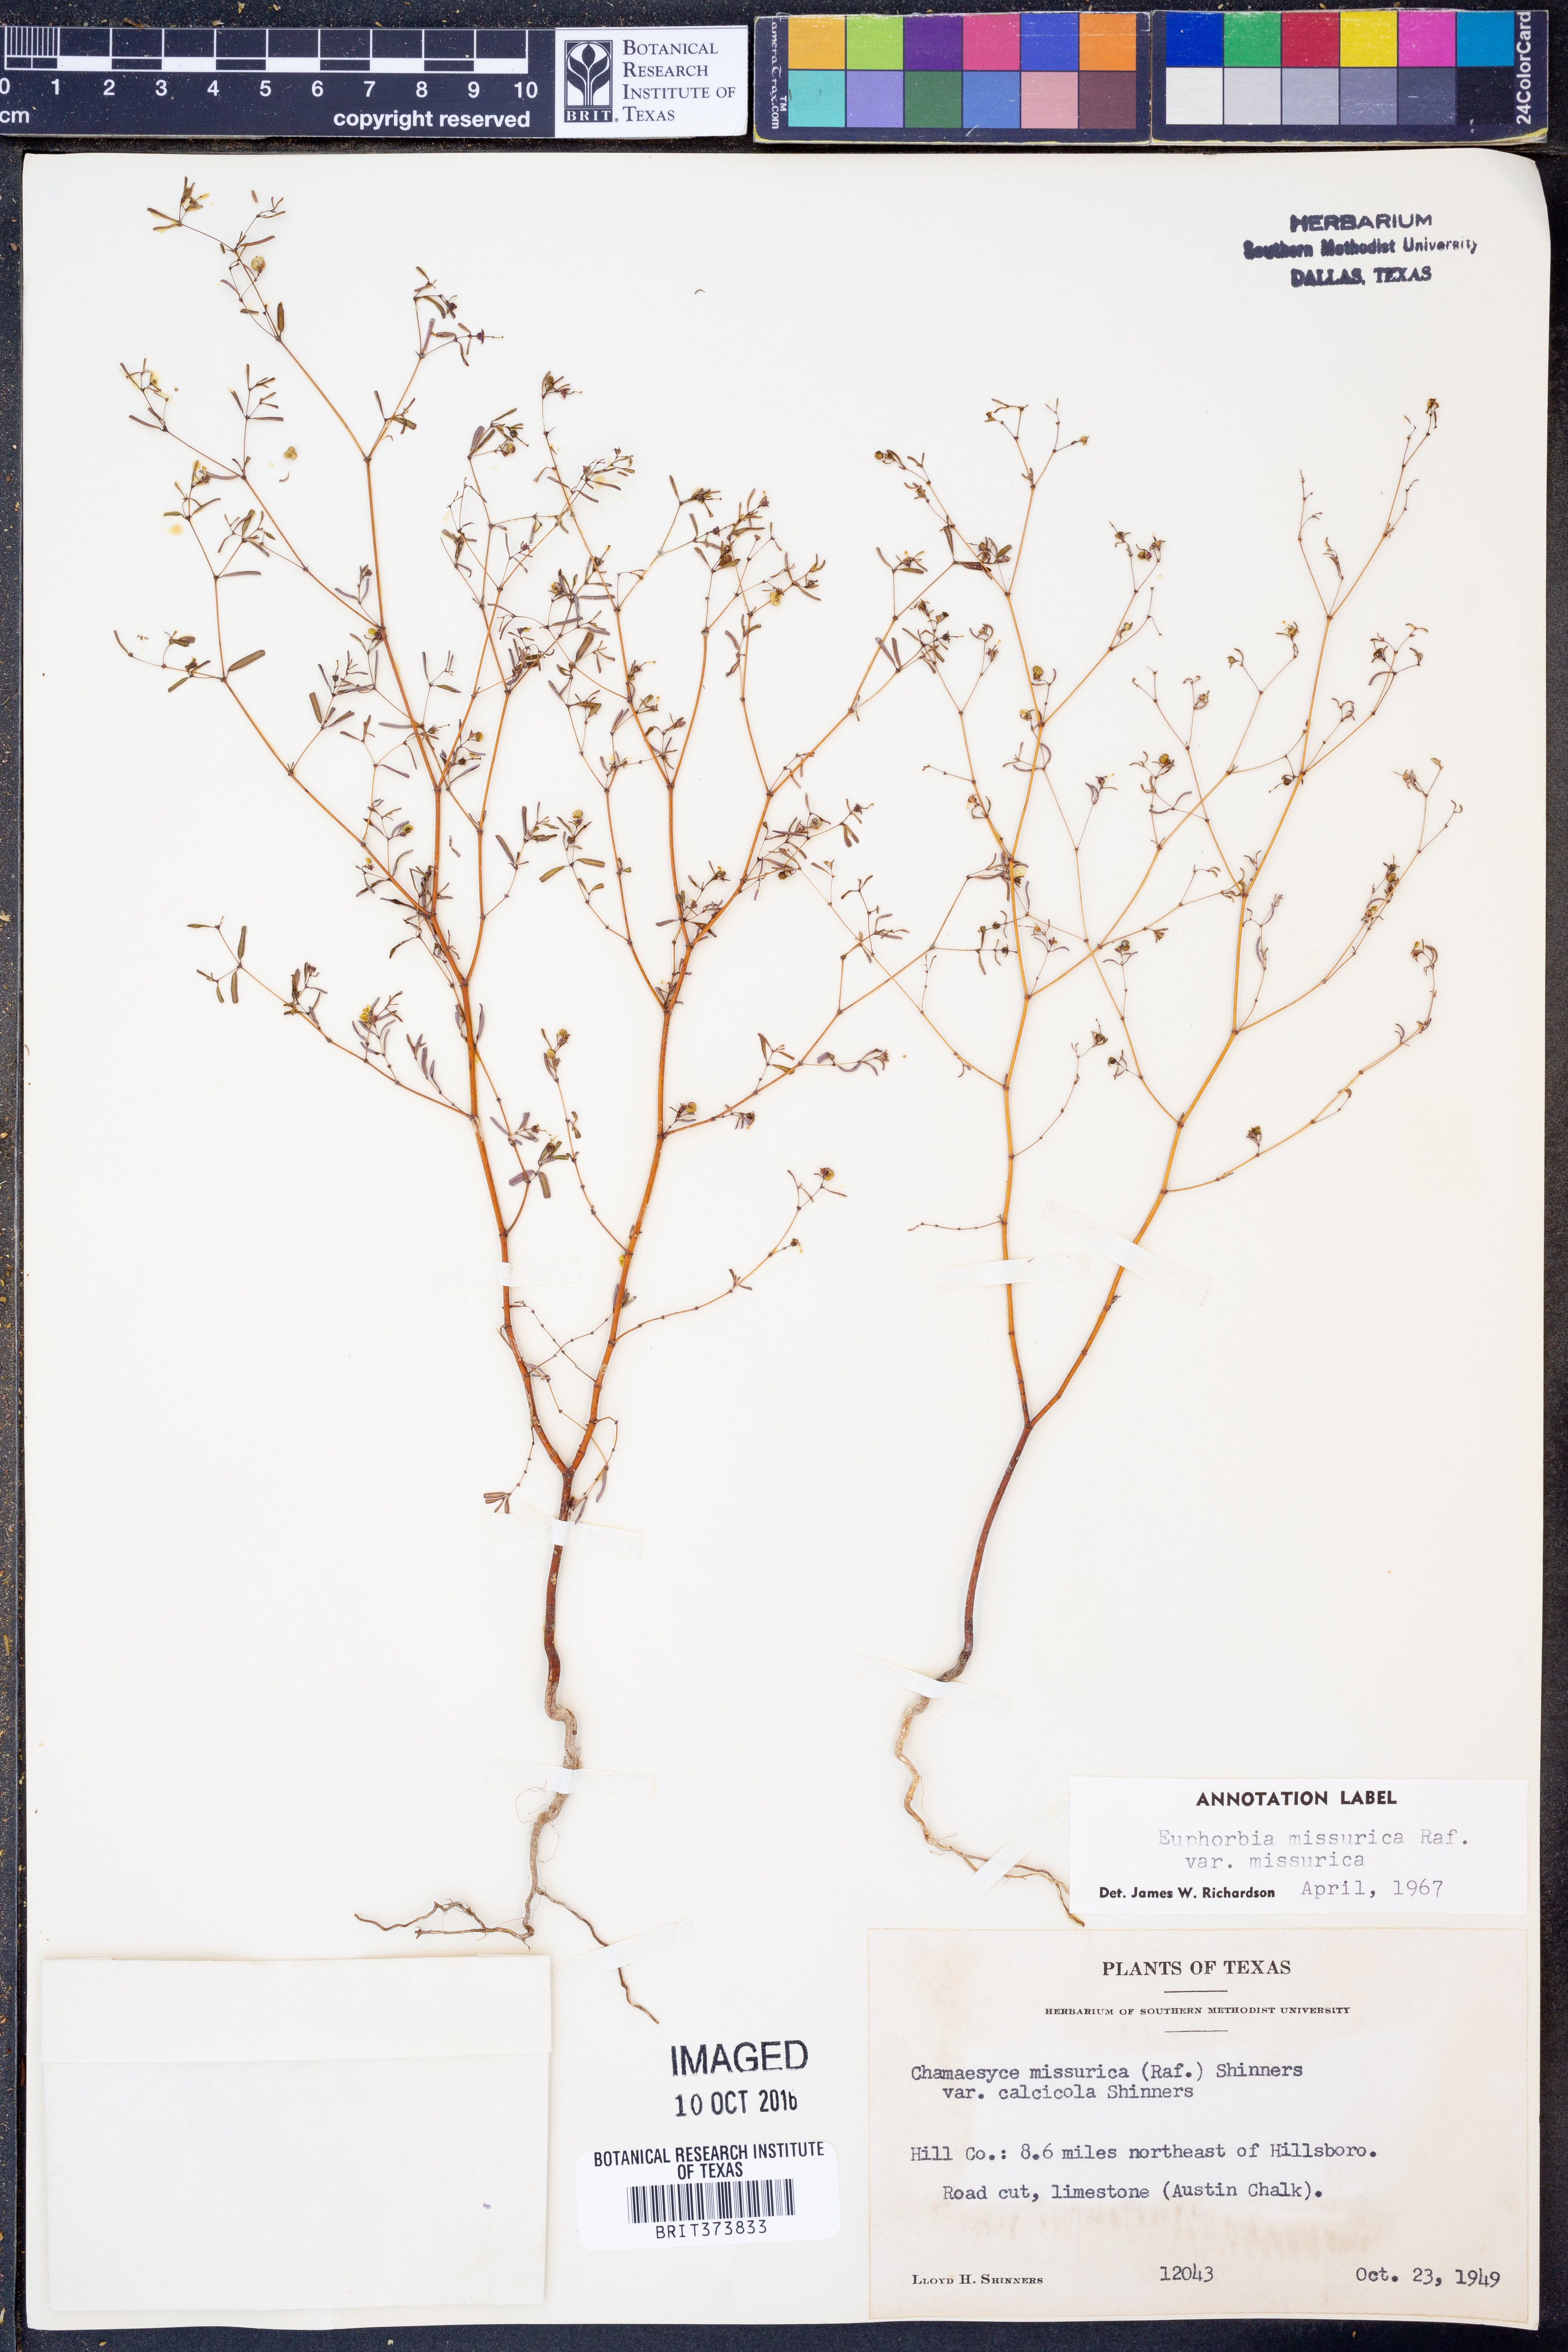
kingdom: Plantae
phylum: Tracheophyta
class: Magnoliopsida
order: Malpighiales
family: Euphorbiaceae
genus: Euphorbia
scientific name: Euphorbia missurica
